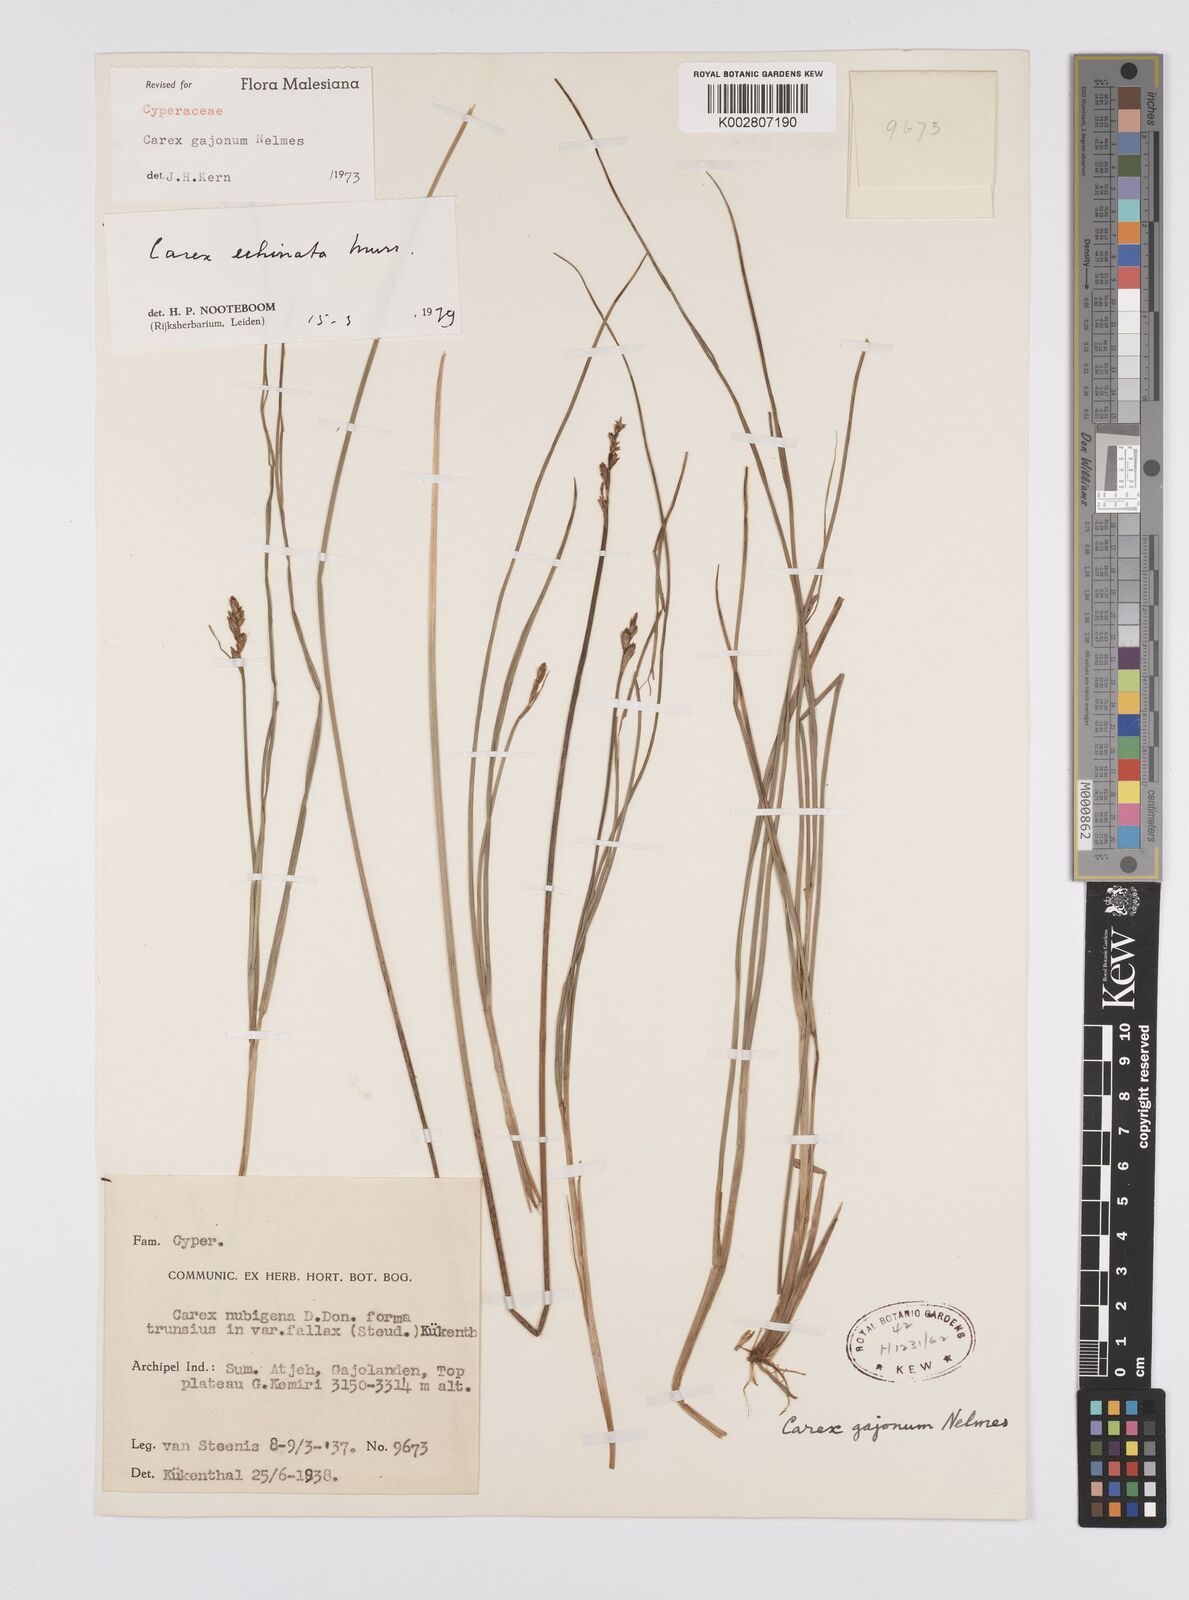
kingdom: Plantae
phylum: Tracheophyta
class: Liliopsida
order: Poales
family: Cyperaceae
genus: Carex
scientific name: Carex echinata
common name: Star sedge
